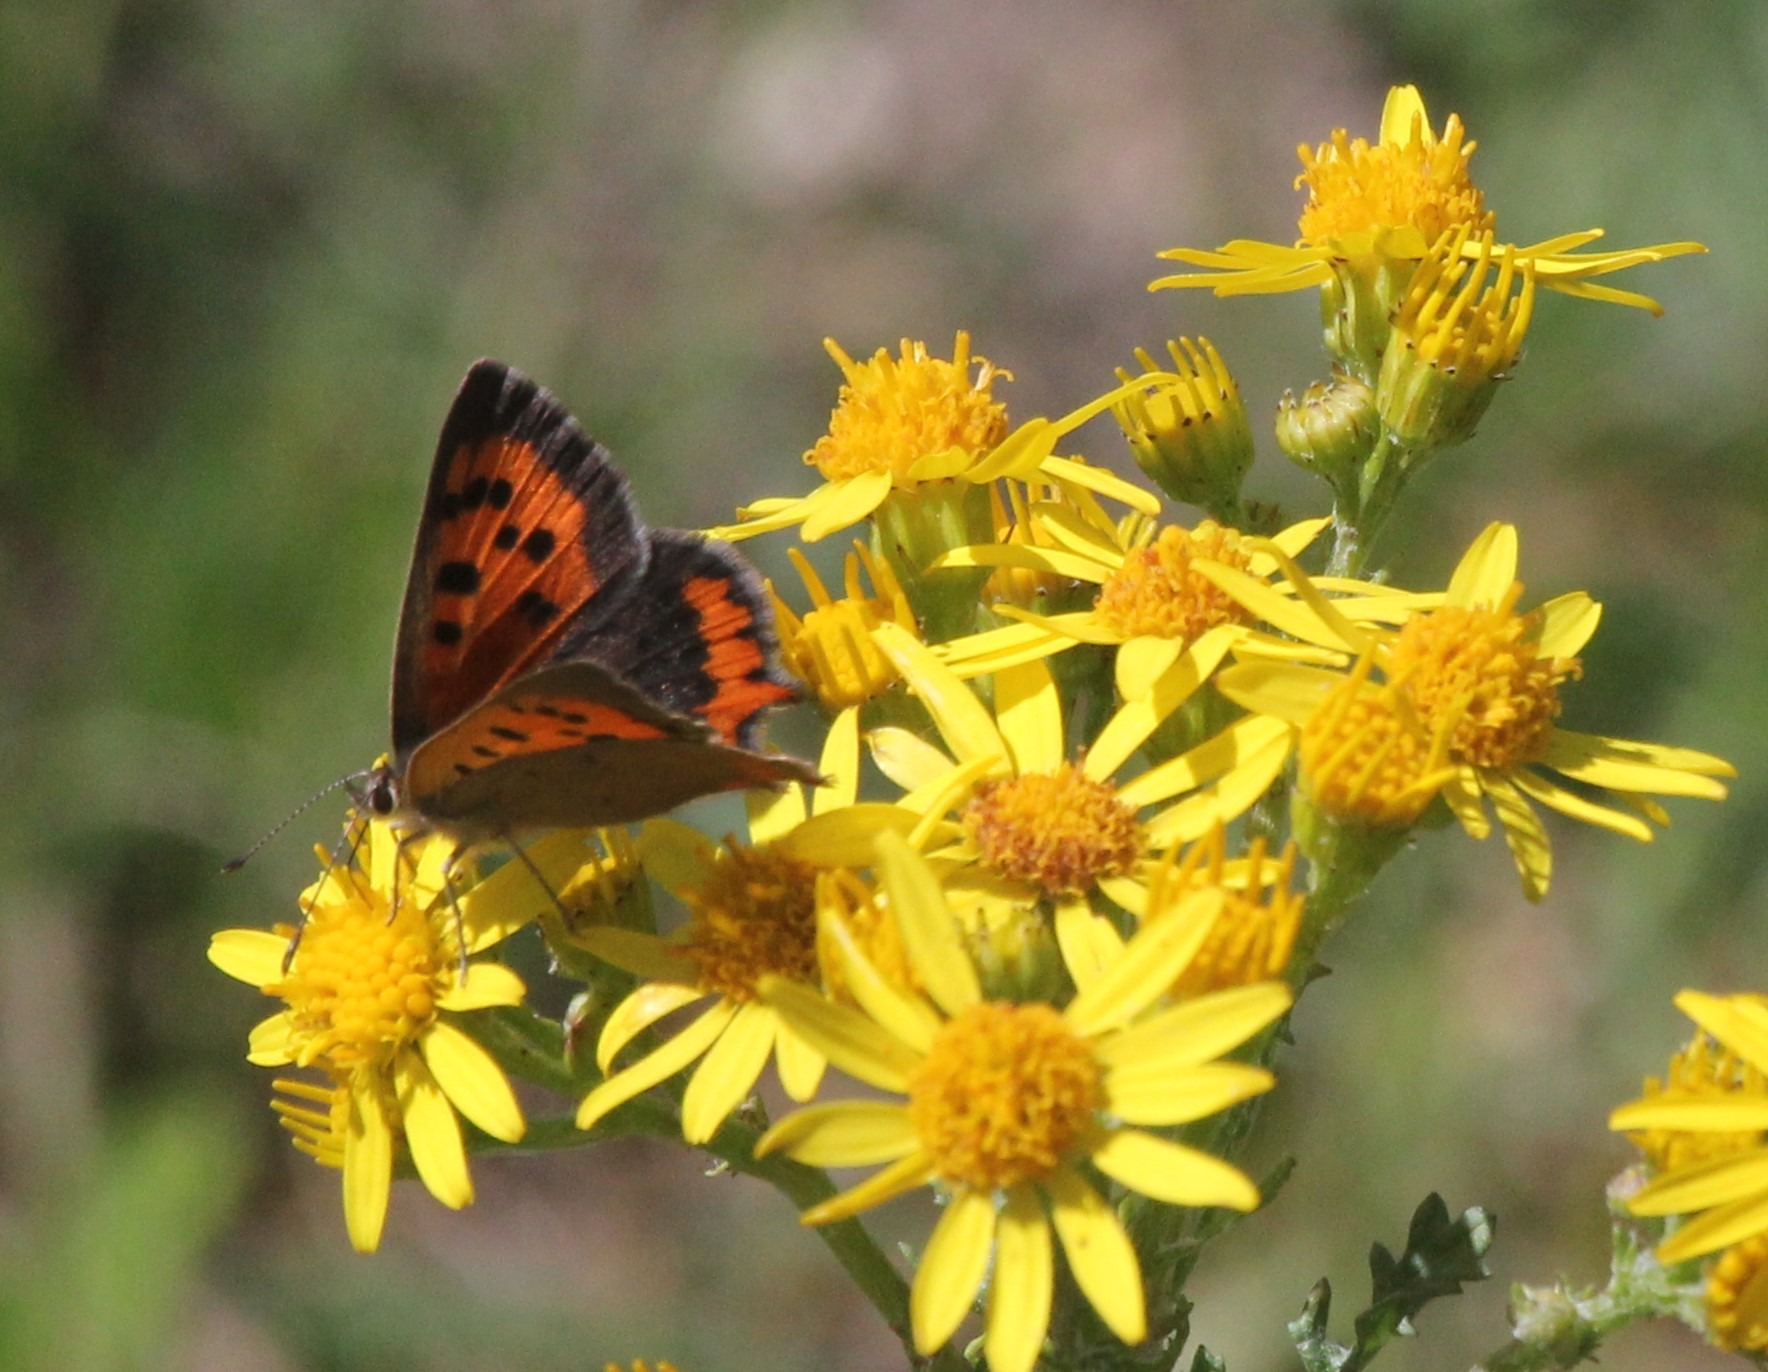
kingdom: Animalia
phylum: Arthropoda
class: Insecta
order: Lepidoptera
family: Lycaenidae
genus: Lycaena
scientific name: Lycaena phlaeas
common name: Lille ildfugl
